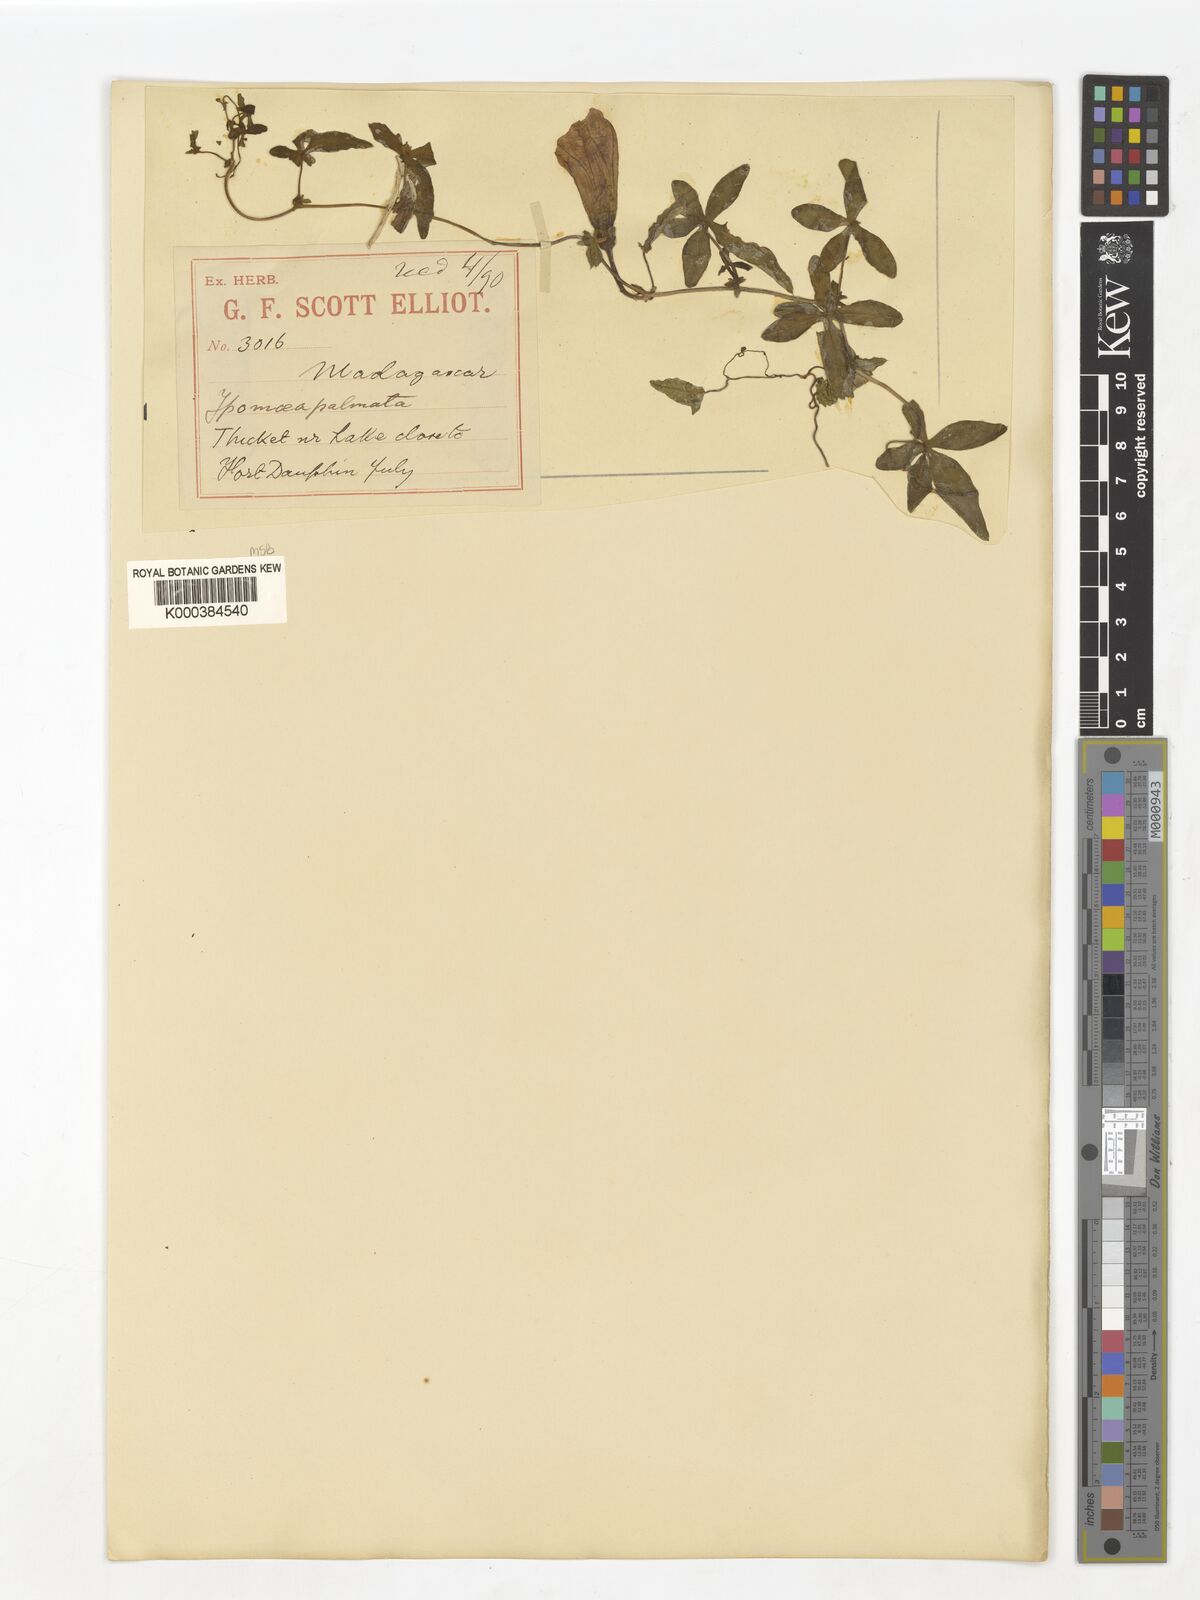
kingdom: Plantae
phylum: Tracheophyta
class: Magnoliopsida
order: Solanales
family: Convolvulaceae
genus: Ipomoea
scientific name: Ipomoea cairica
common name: Mile a minute vine
